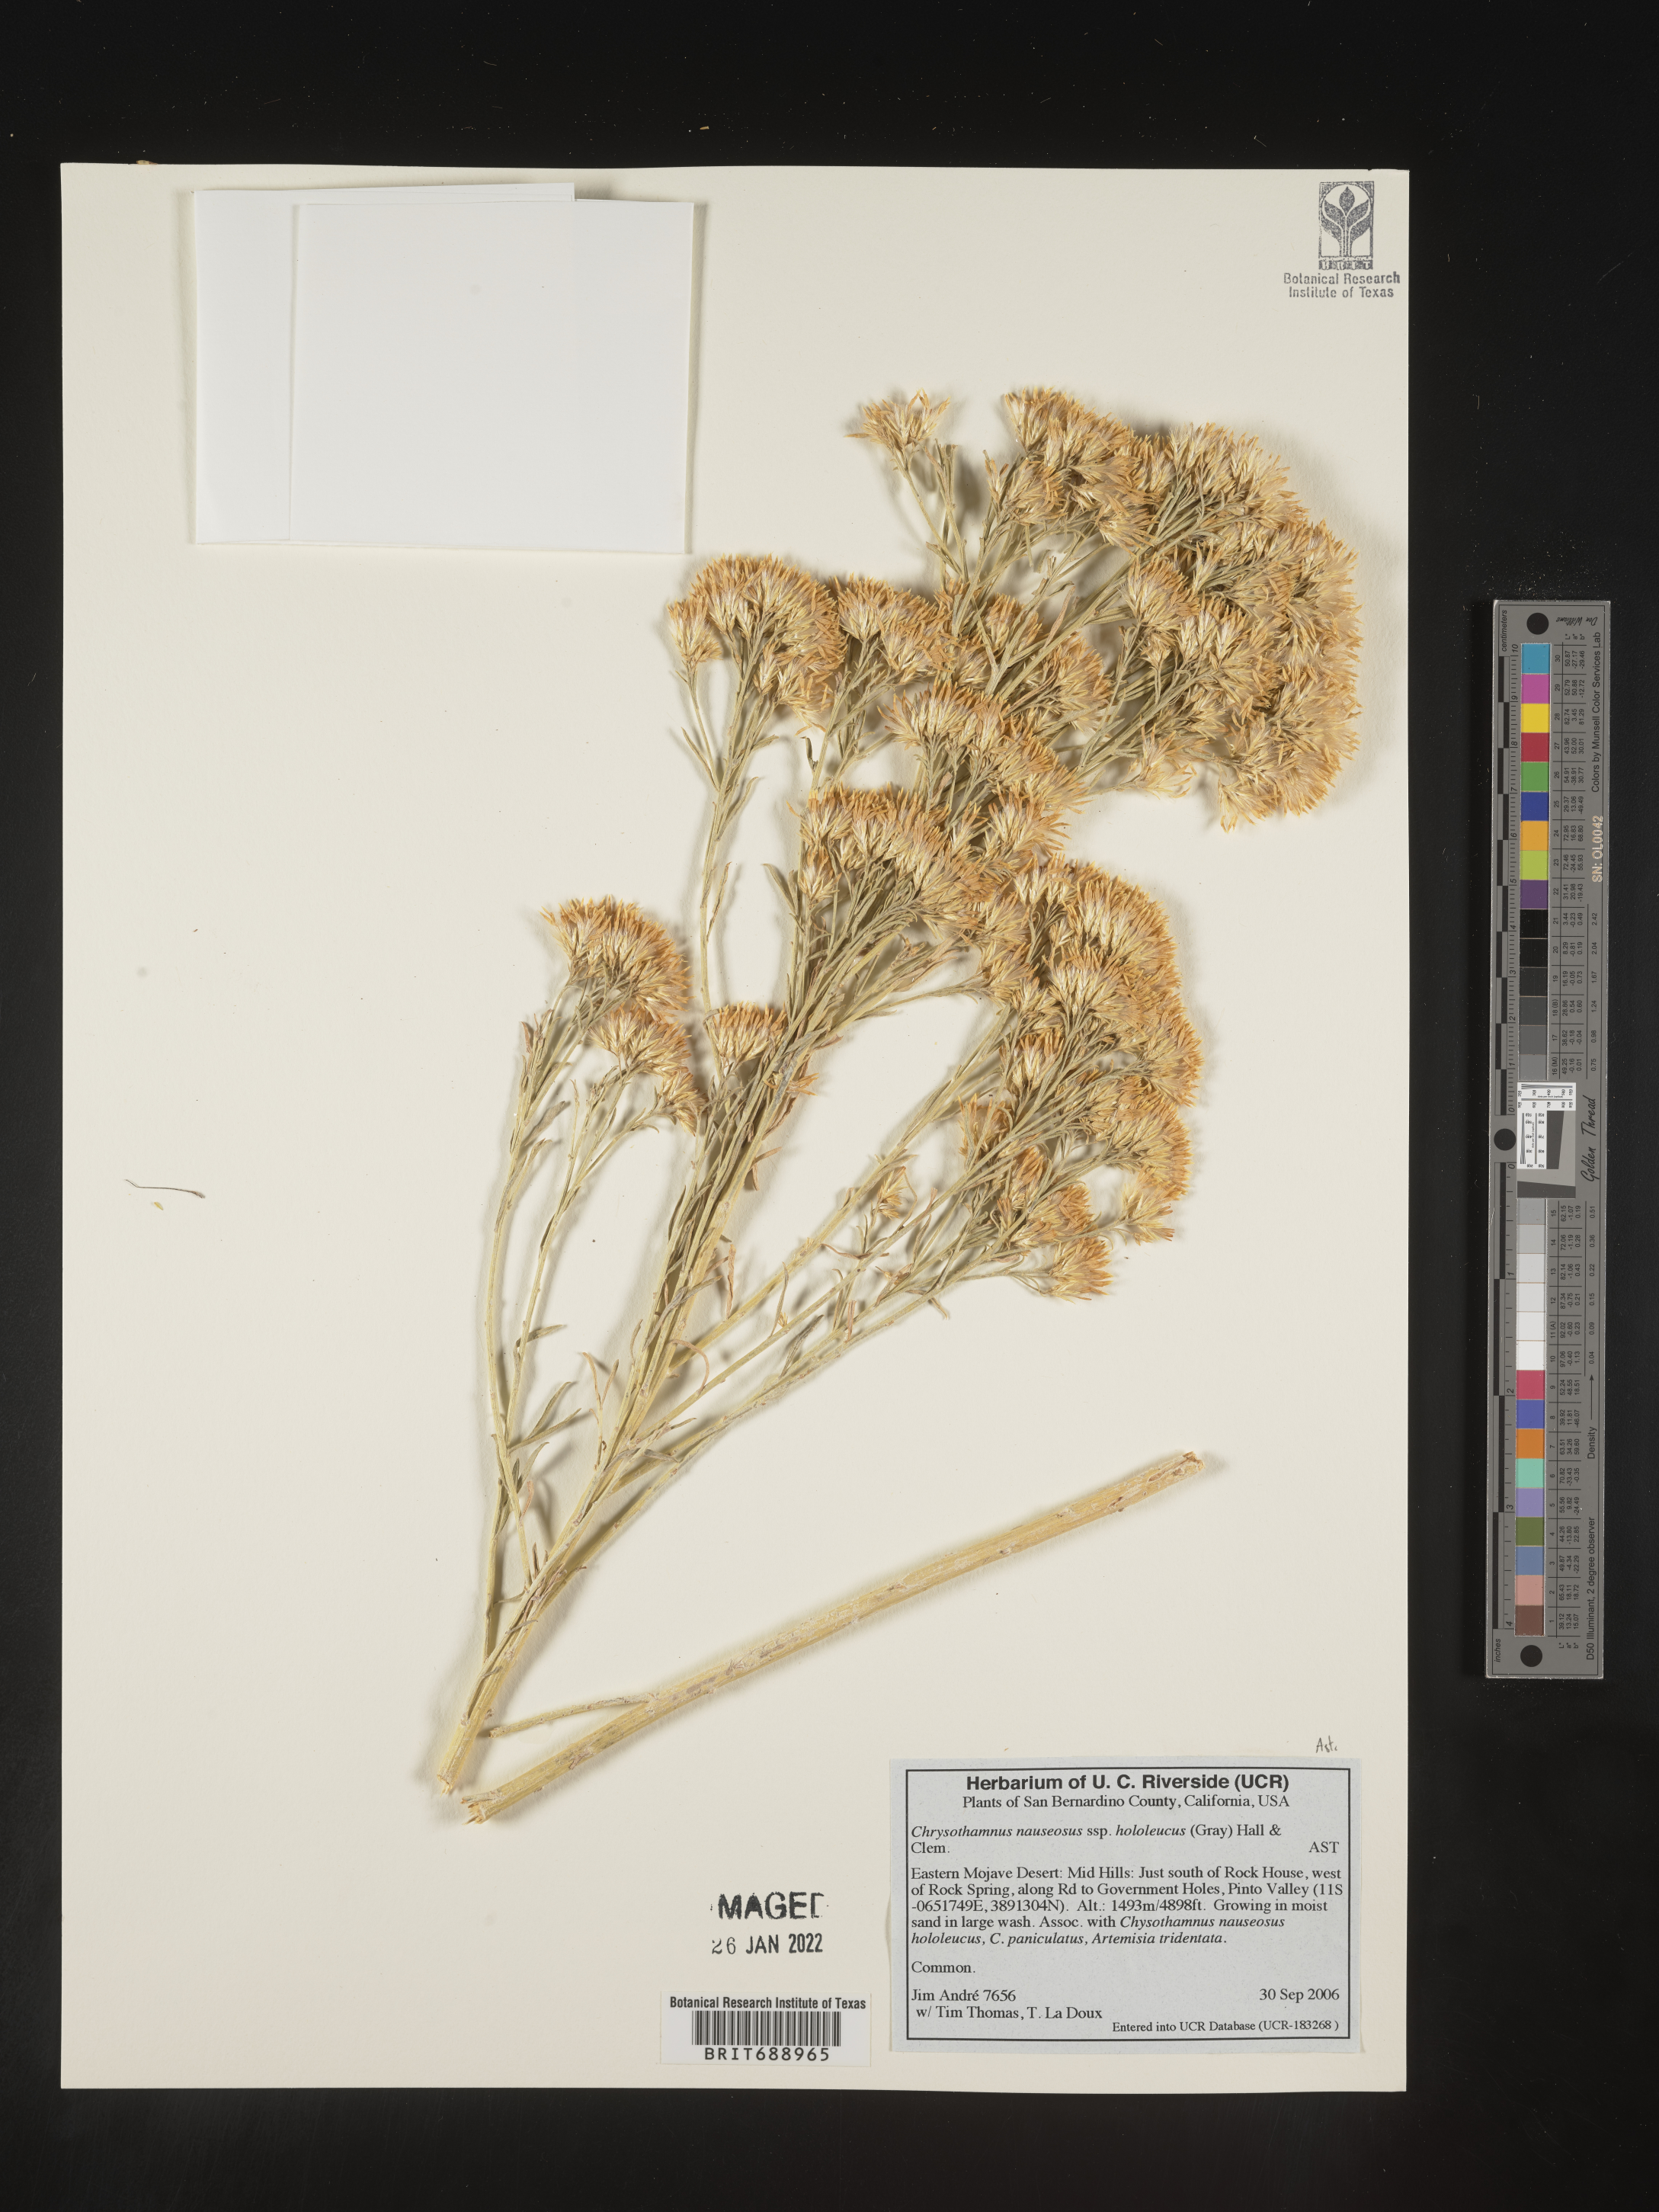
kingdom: Plantae
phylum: Tracheophyta
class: Magnoliopsida
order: Asterales
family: Asteraceae
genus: Ericameria
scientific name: Ericameria nauseosa
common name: Rubber rabbitbrush
